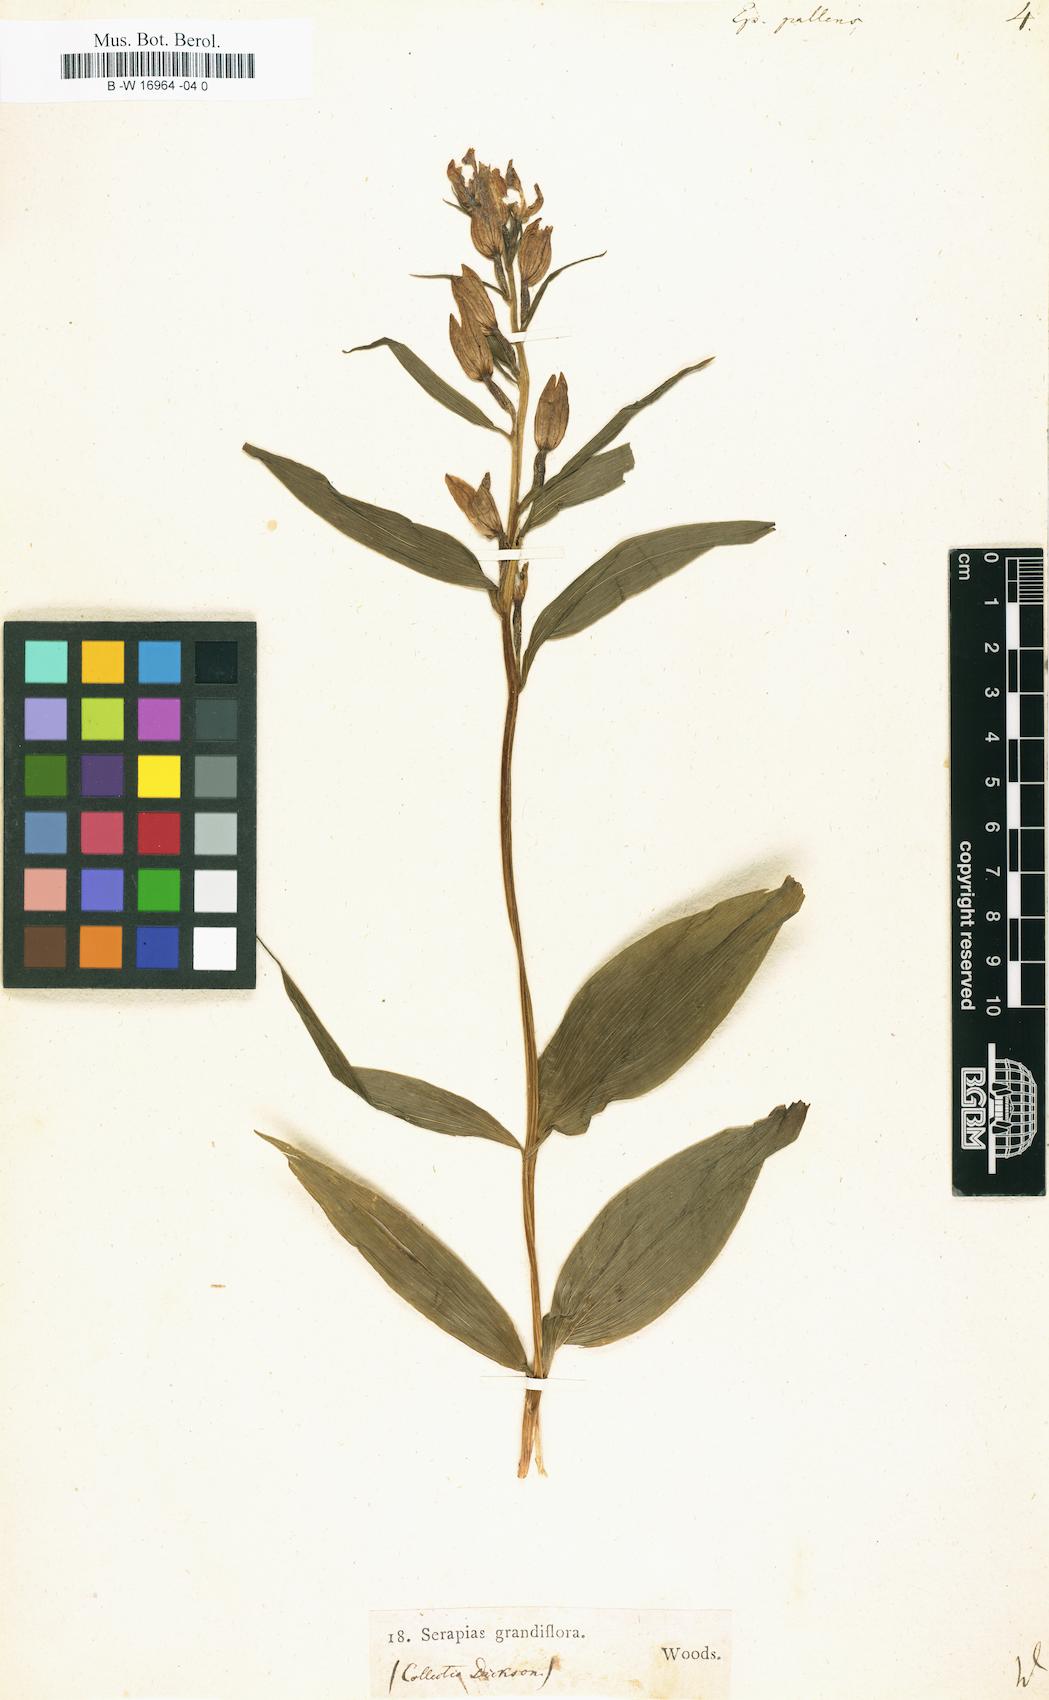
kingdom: Plantae
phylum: Tracheophyta
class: Liliopsida
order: Asparagales
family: Orchidaceae
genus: Cephalanthera
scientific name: Cephalanthera longifolia
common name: Narrow-leaved helleborine
